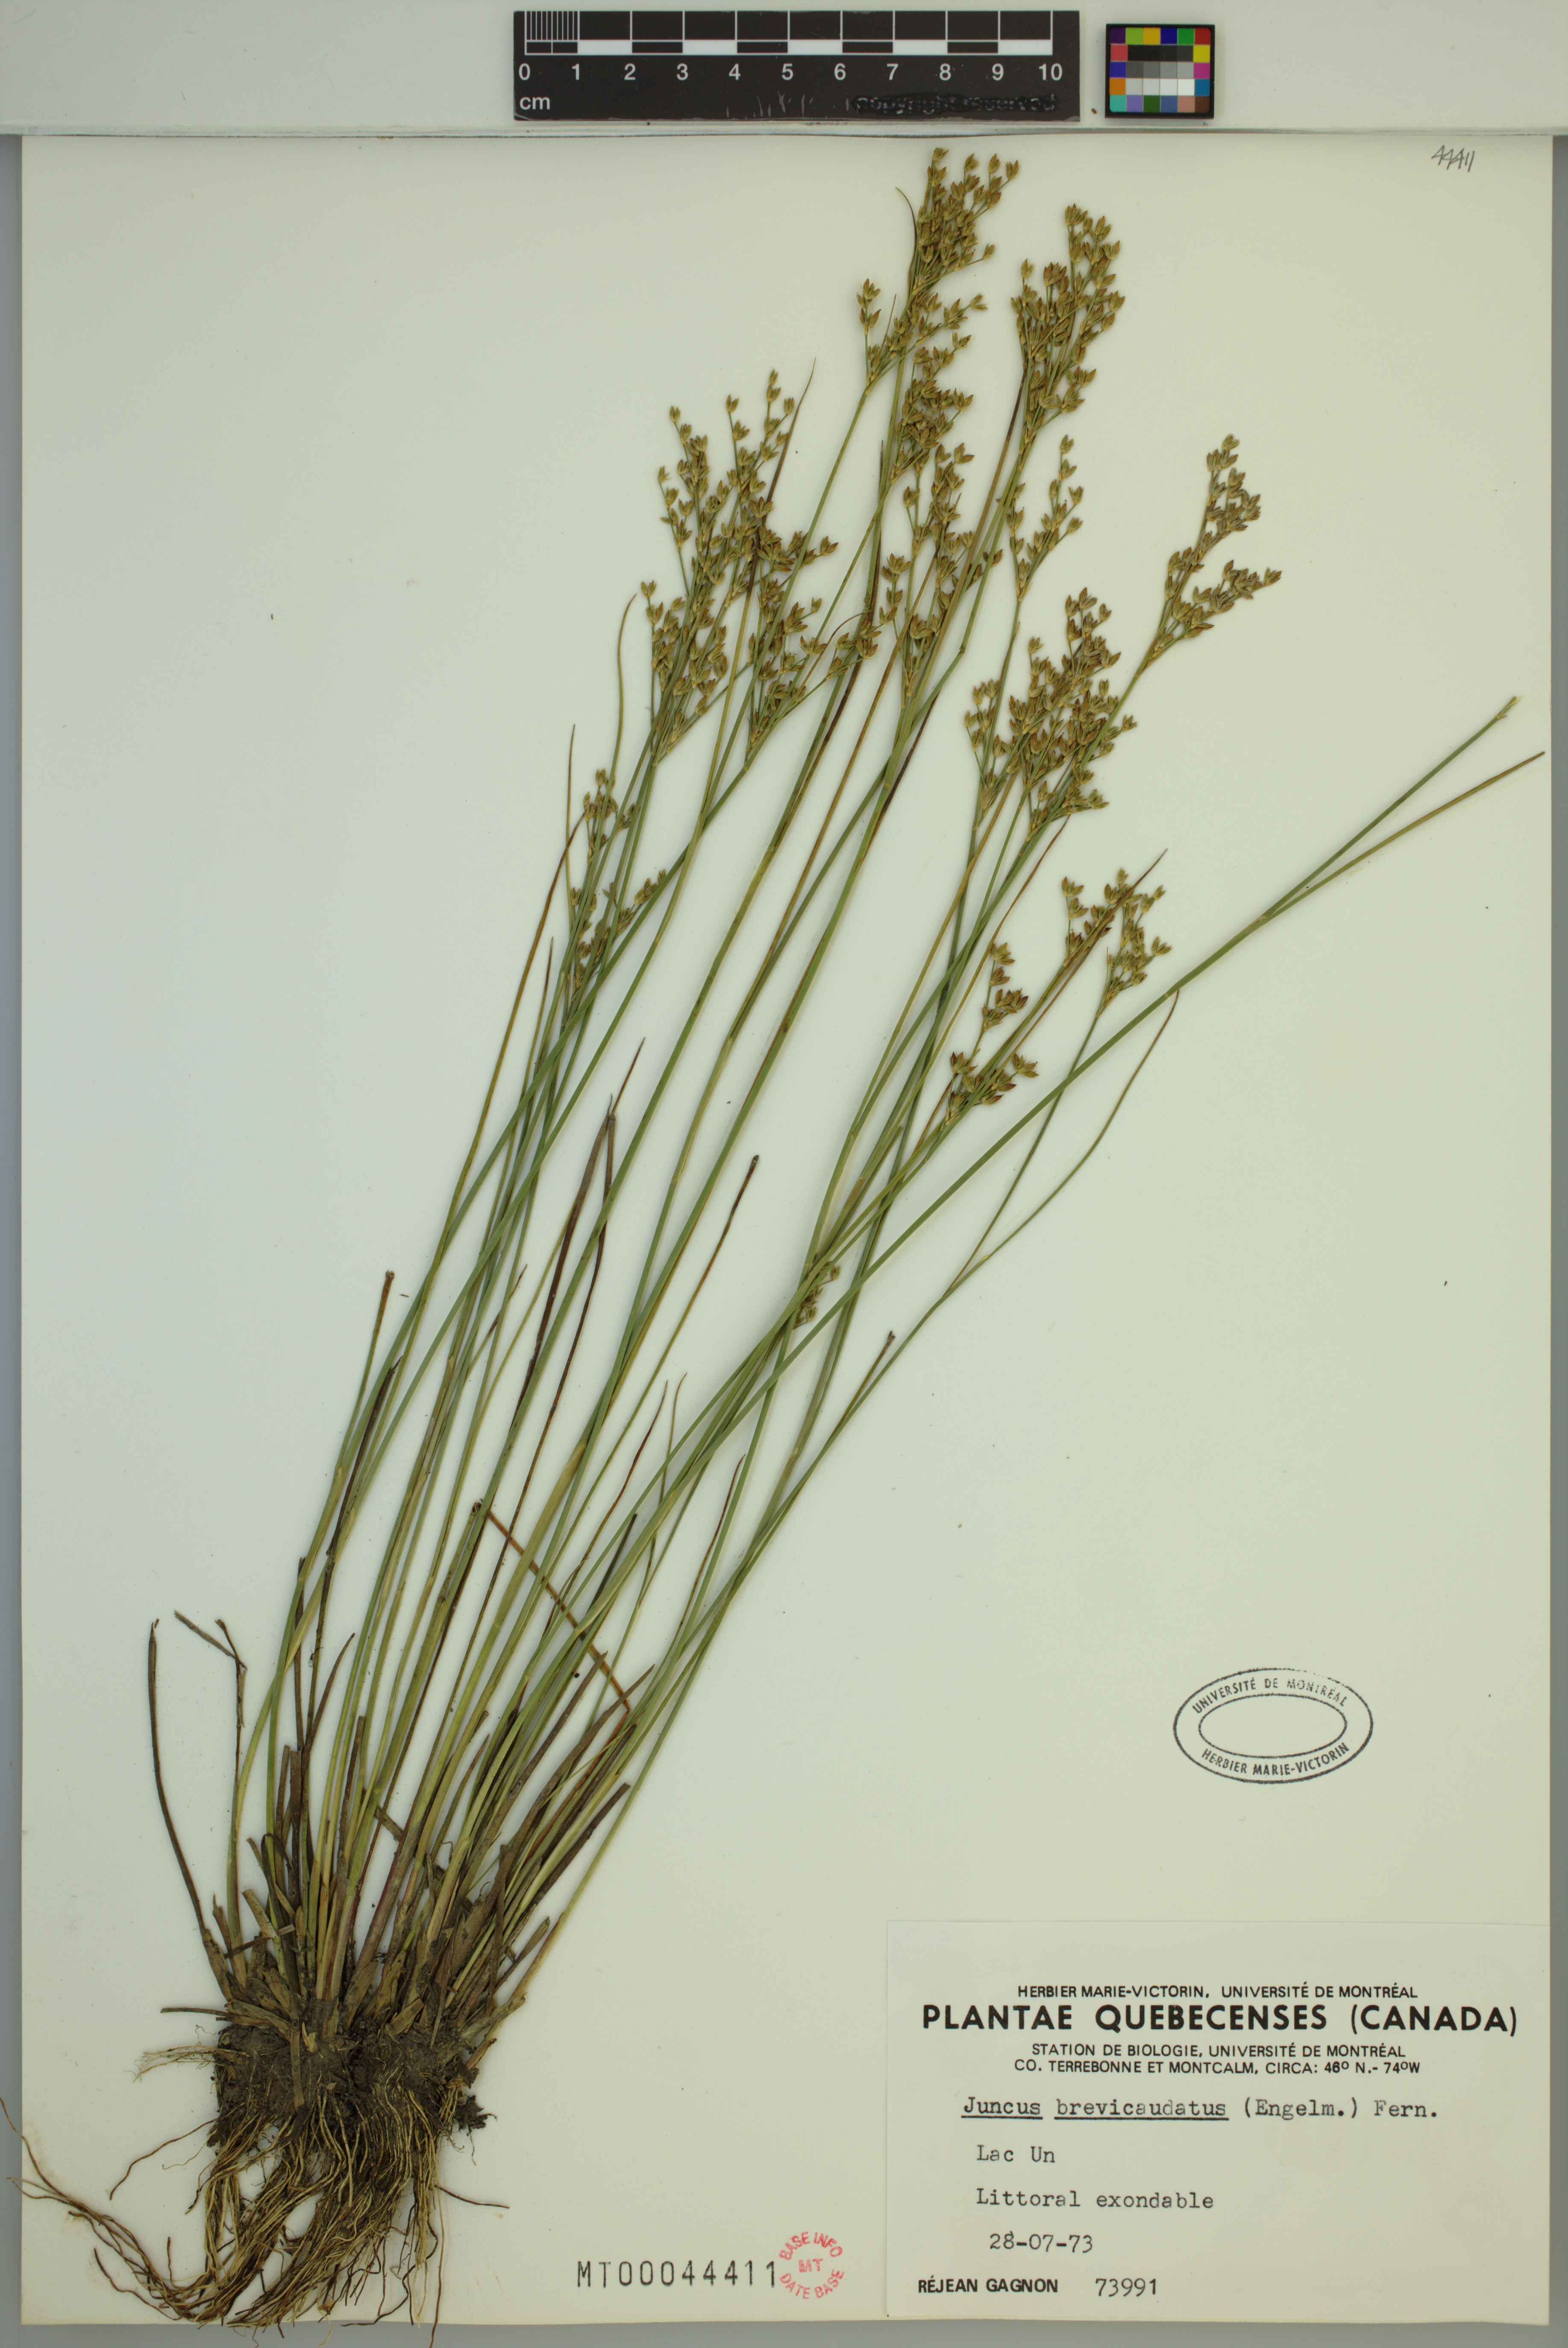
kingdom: Plantae
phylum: Tracheophyta
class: Liliopsida
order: Poales
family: Juncaceae
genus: Juncus
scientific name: Juncus brevicaudatus
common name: Narrow-panicle rush
